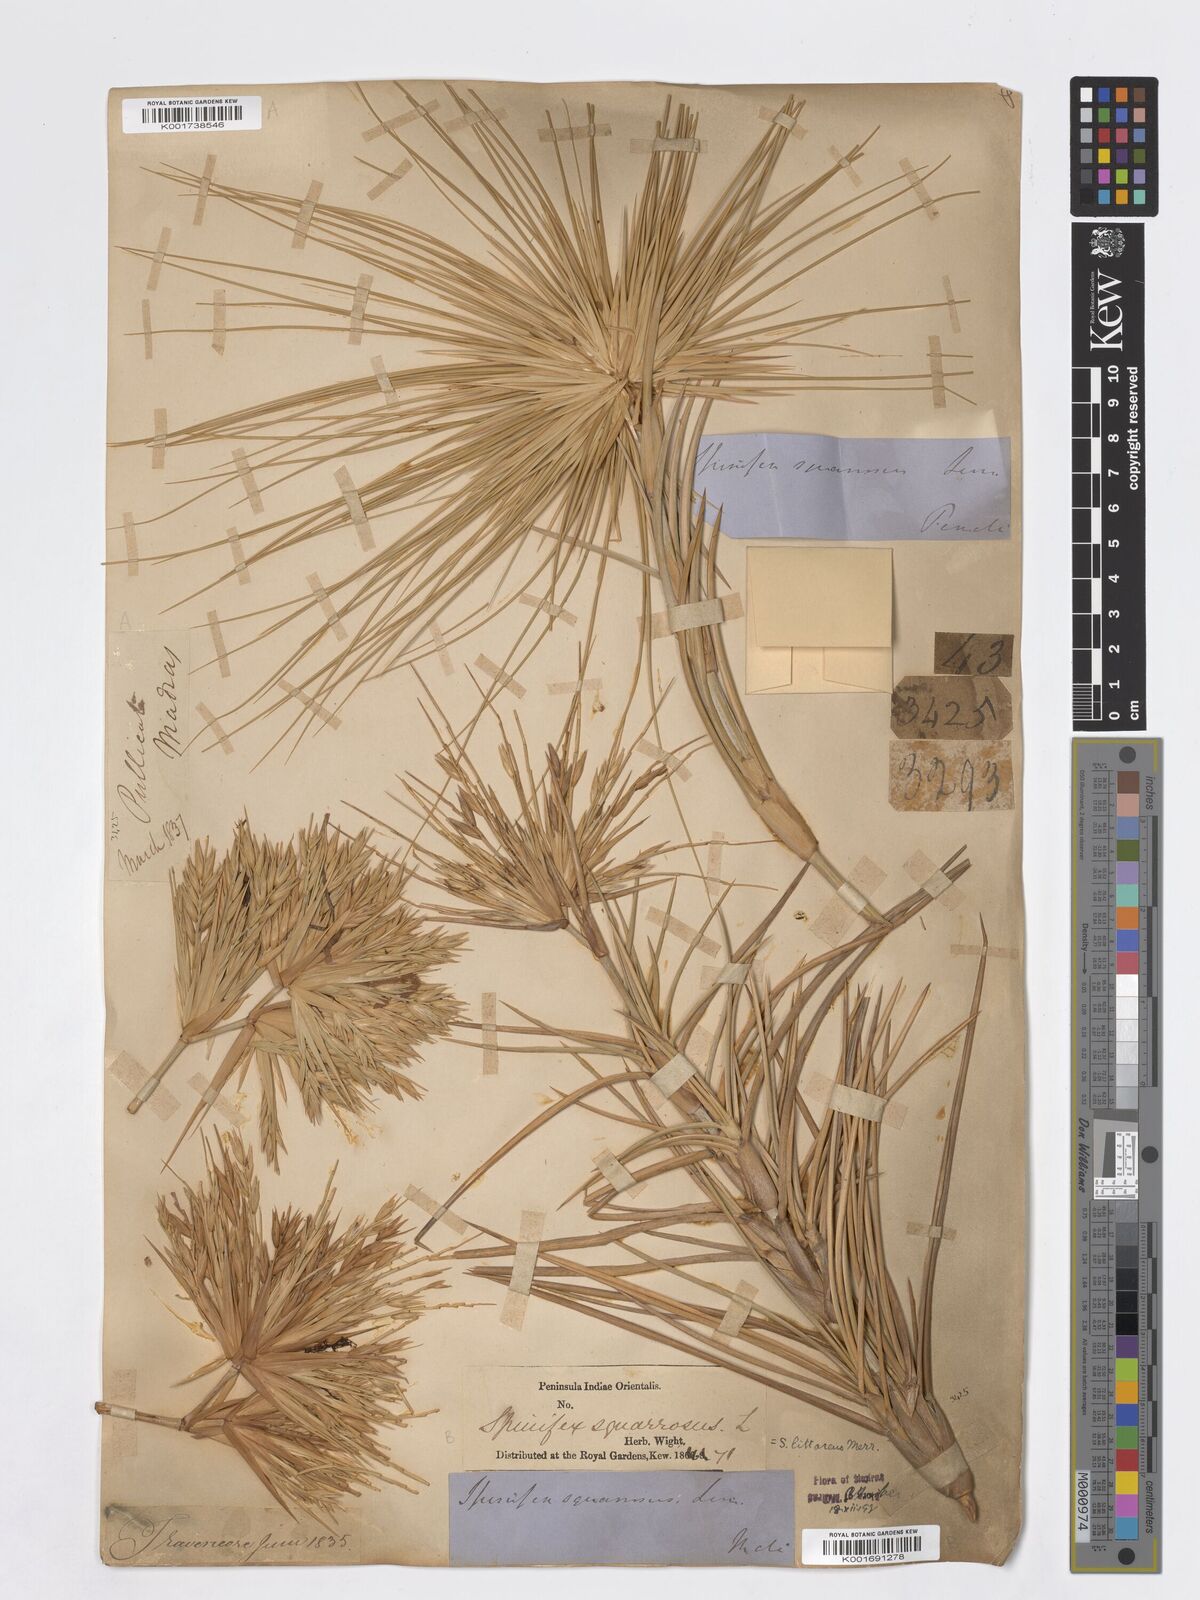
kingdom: Plantae
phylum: Tracheophyta
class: Liliopsida
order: Poales
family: Poaceae
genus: Spinifex
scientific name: Spinifex littoreus
